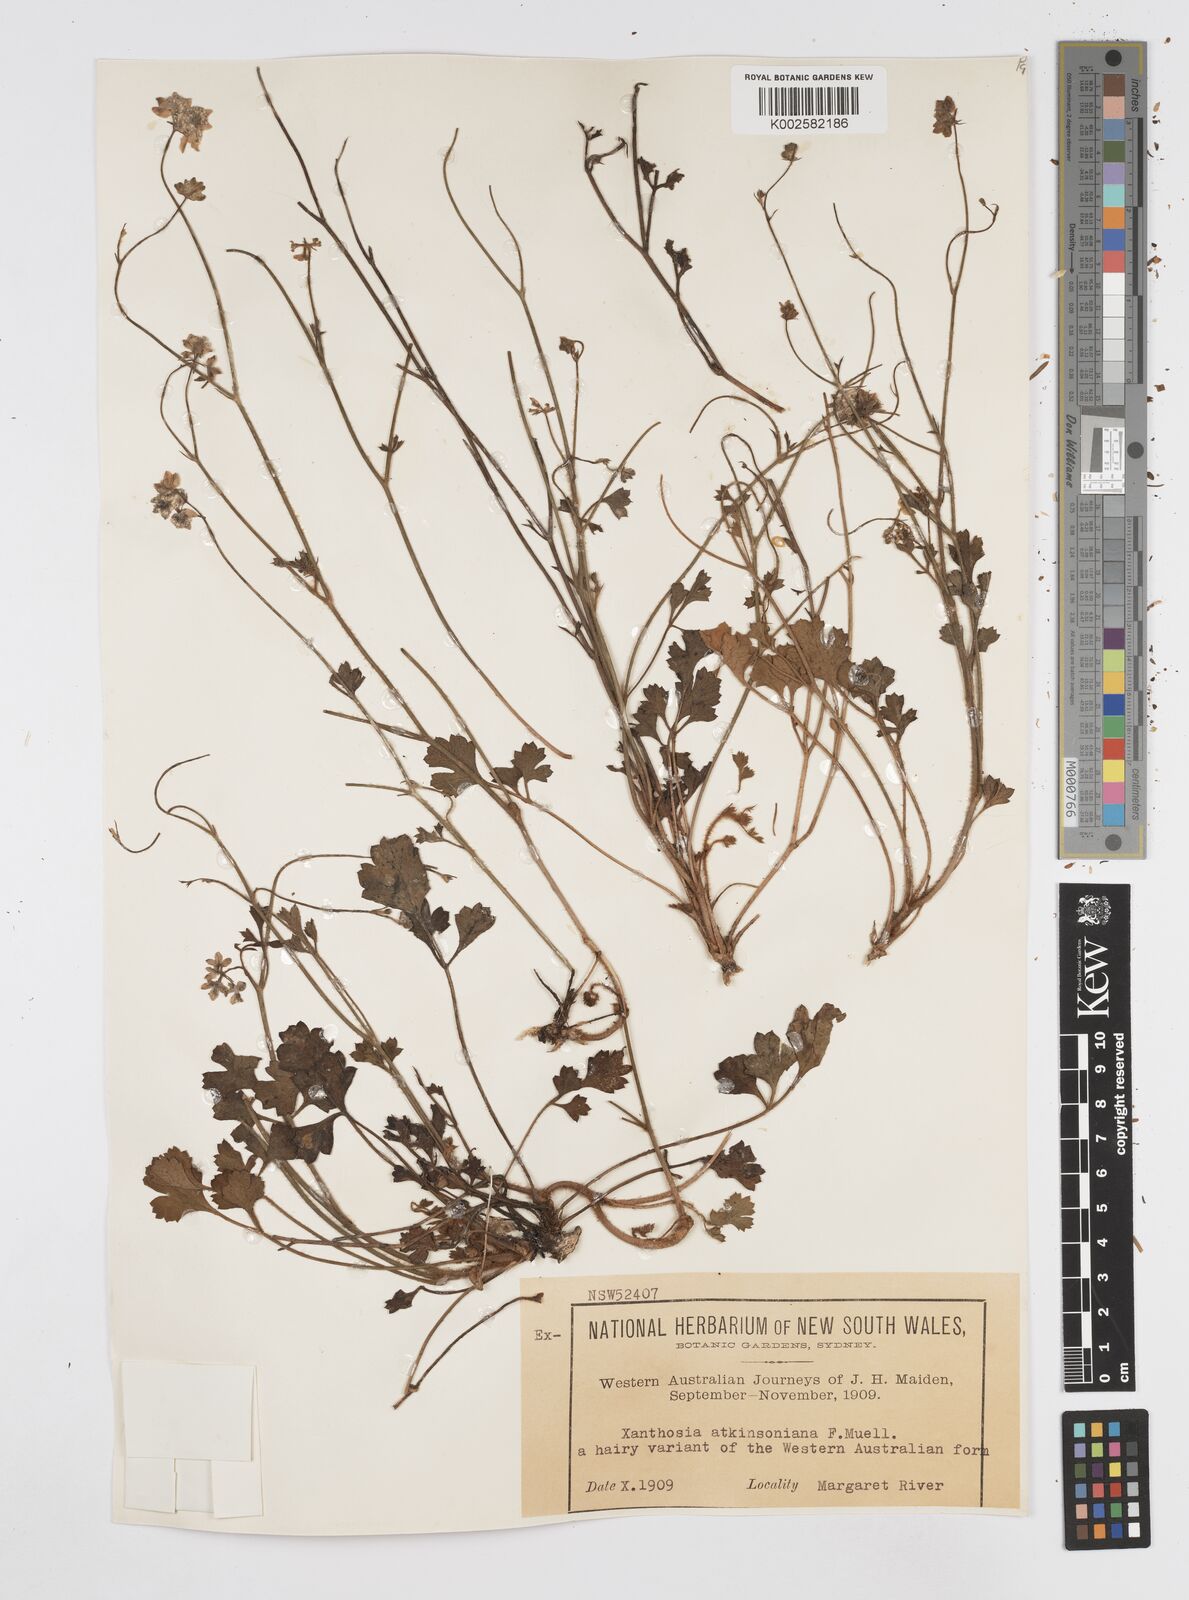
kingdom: Plantae
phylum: Tracheophyta
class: Magnoliopsida
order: Apiales
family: Apiaceae
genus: Xanthosia
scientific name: Xanthosia atkinsoniana
